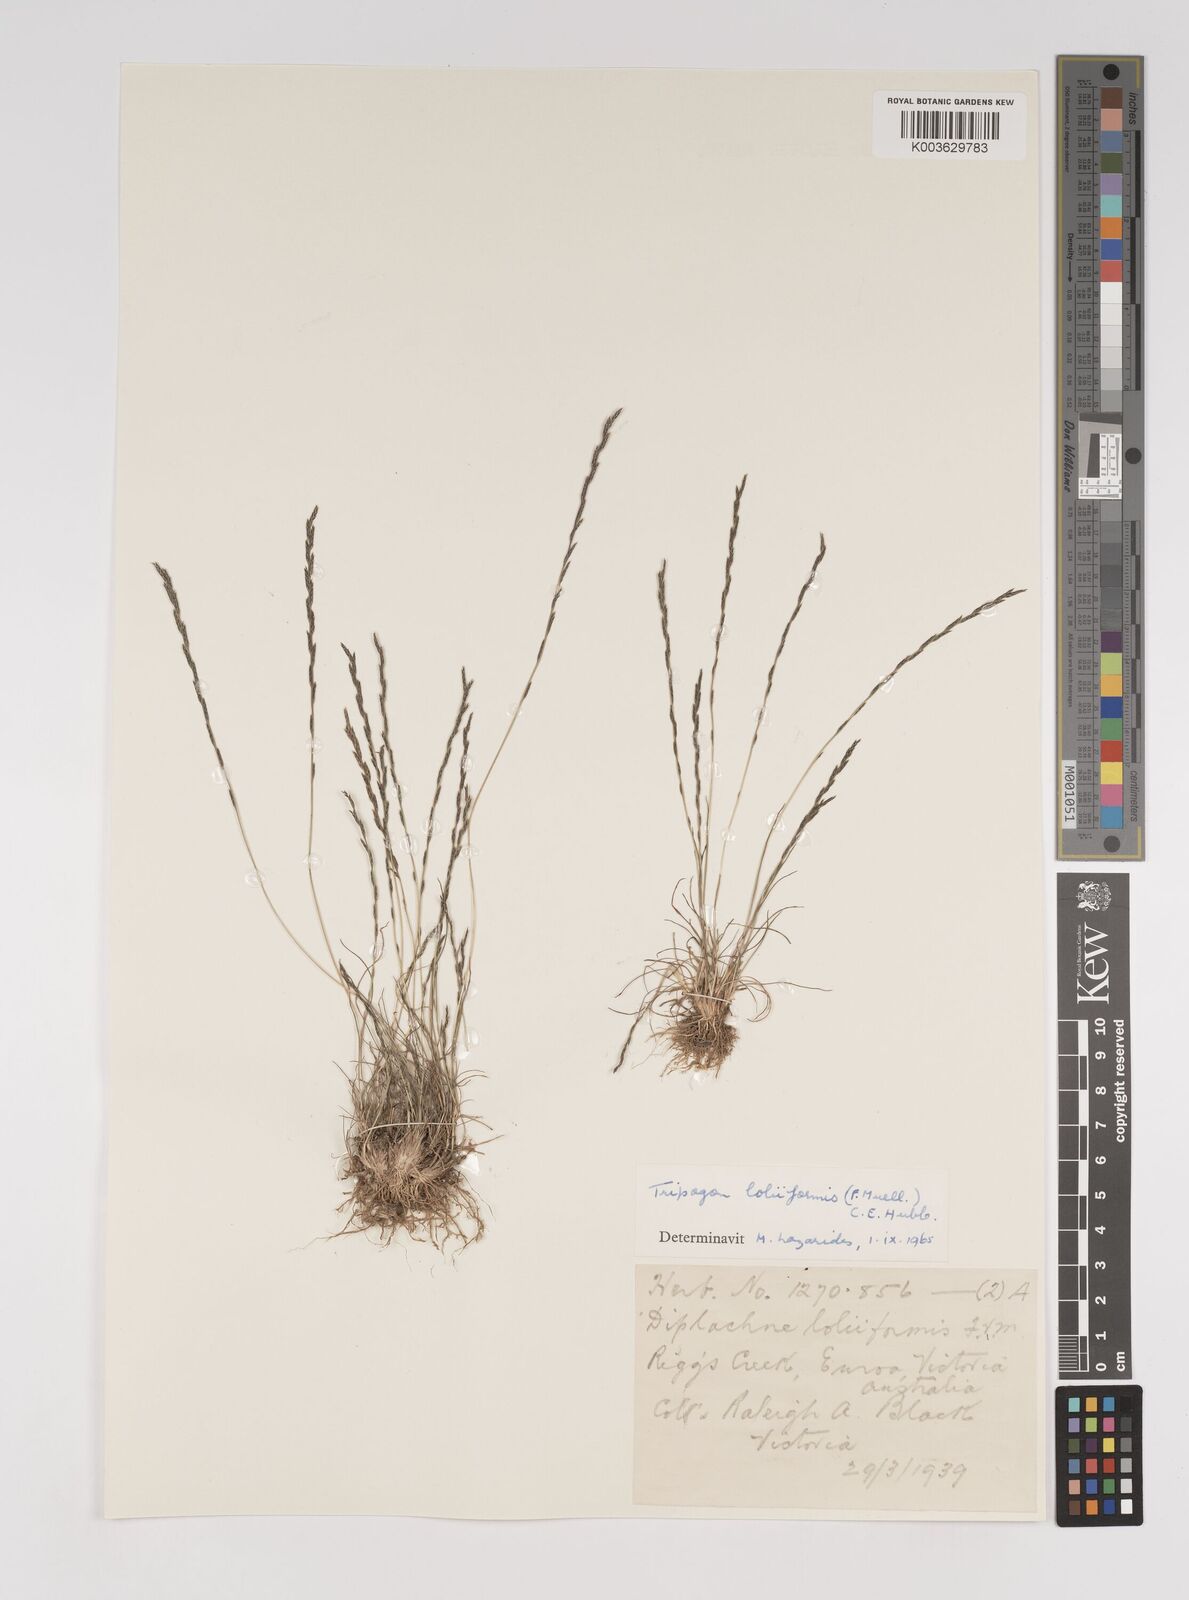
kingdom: Plantae
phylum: Tracheophyta
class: Liliopsida
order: Poales
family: Poaceae
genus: Tripogonella
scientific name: Tripogonella loliiformis
